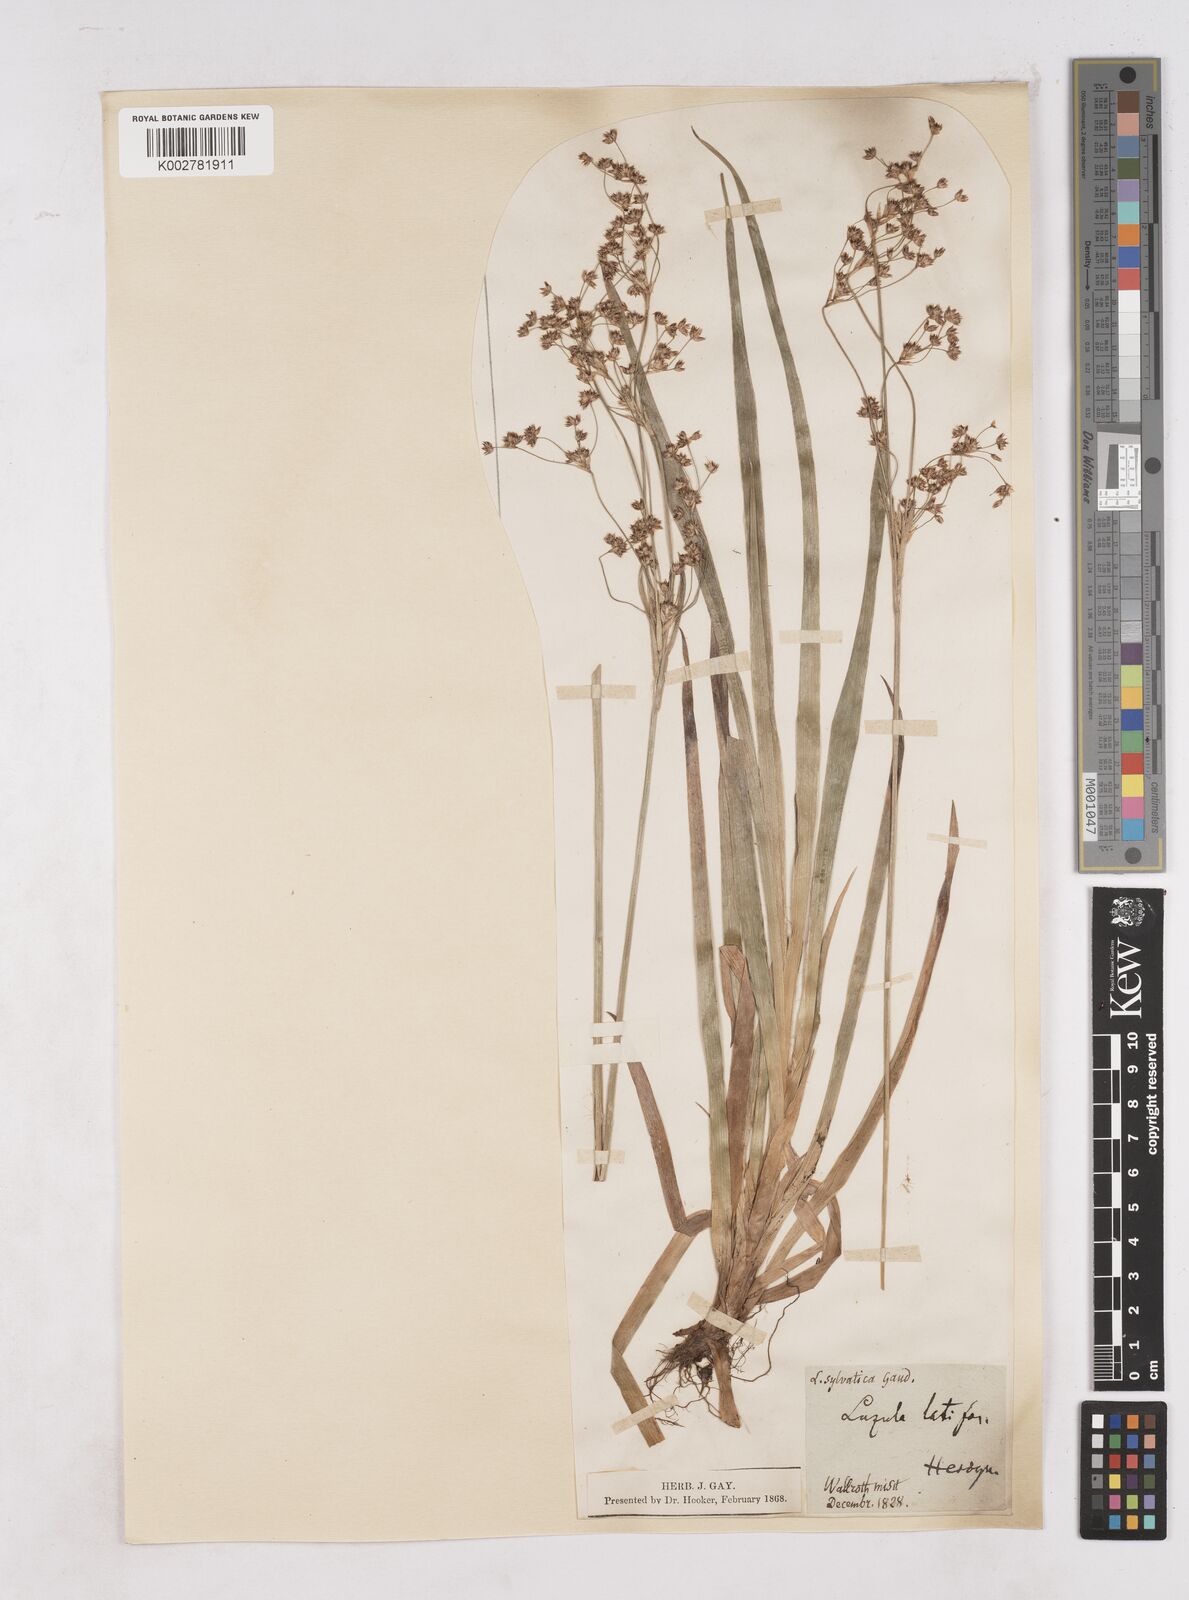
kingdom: Plantae
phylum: Tracheophyta
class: Liliopsida
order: Poales
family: Juncaceae
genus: Luzula
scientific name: Luzula sylvatica
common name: Great wood-rush
